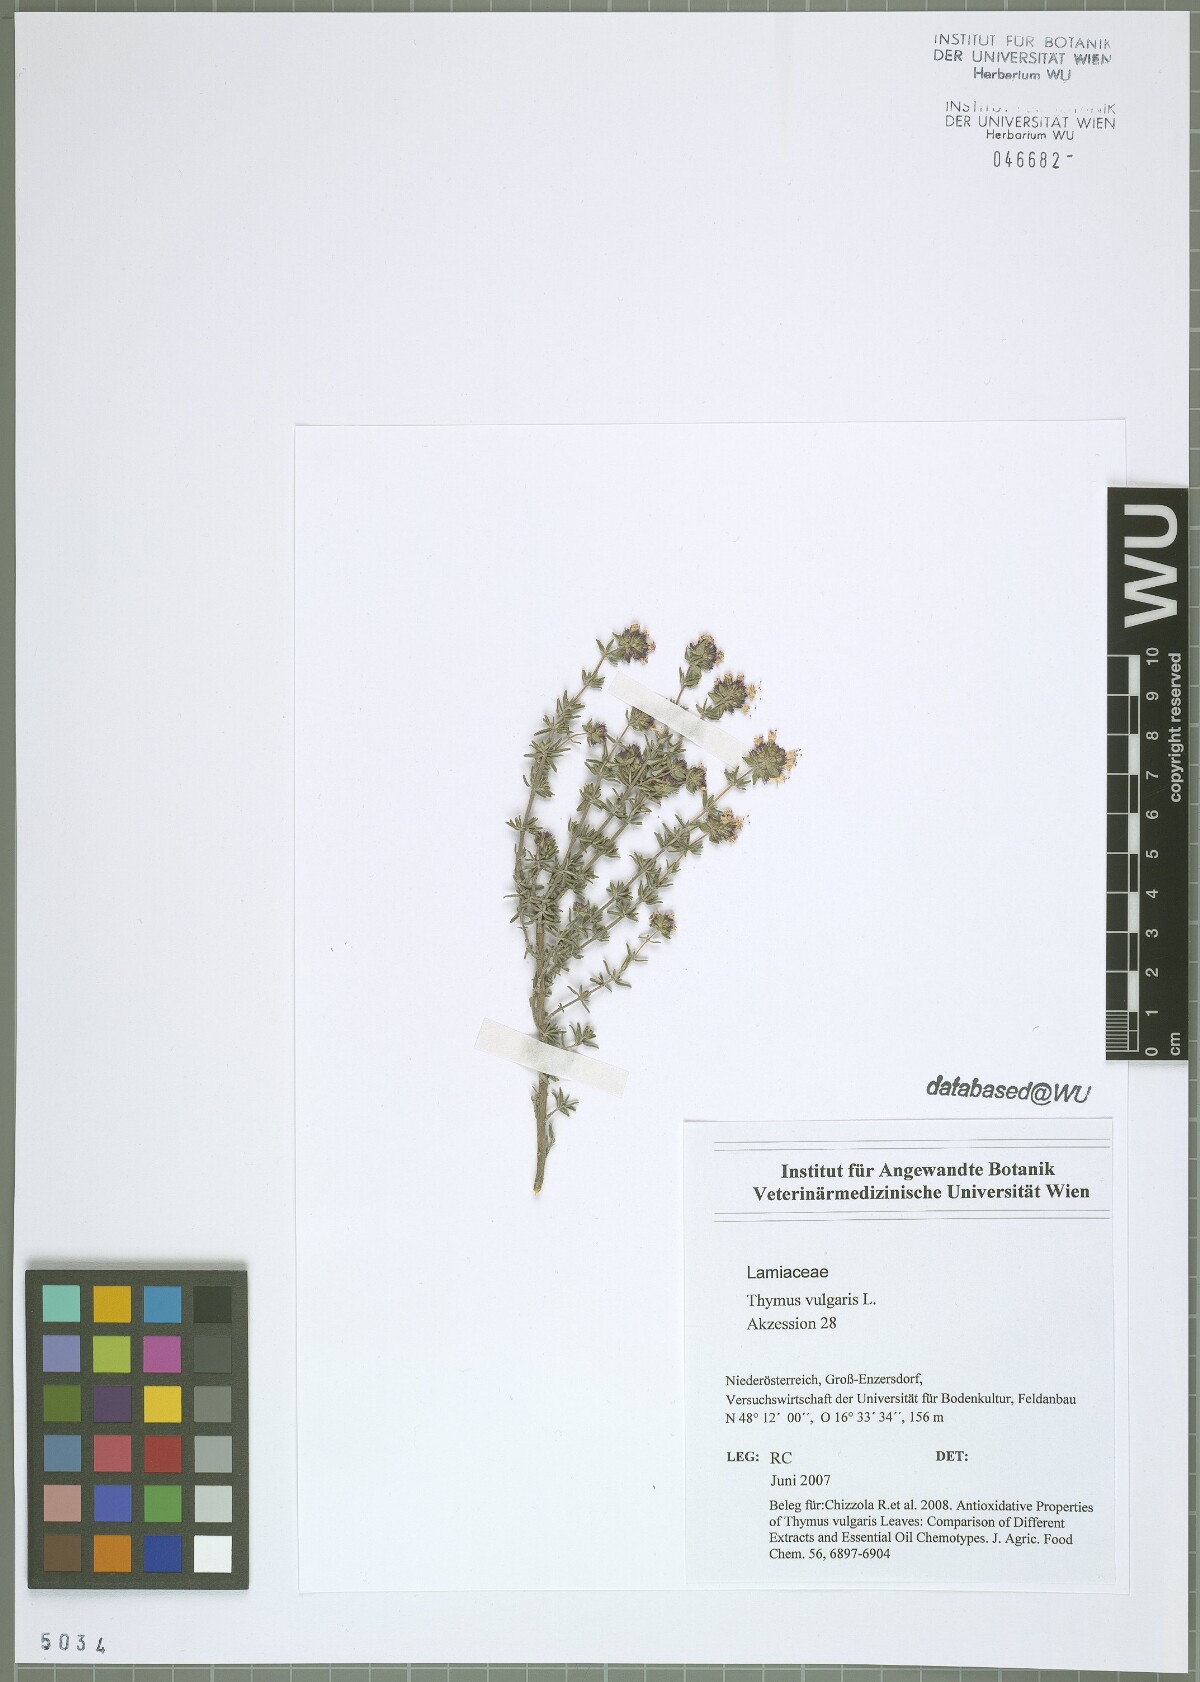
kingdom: Plantae
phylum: Tracheophyta
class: Magnoliopsida
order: Lamiales
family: Lamiaceae
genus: Thymus
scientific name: Thymus vulgaris
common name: Garden thyme
